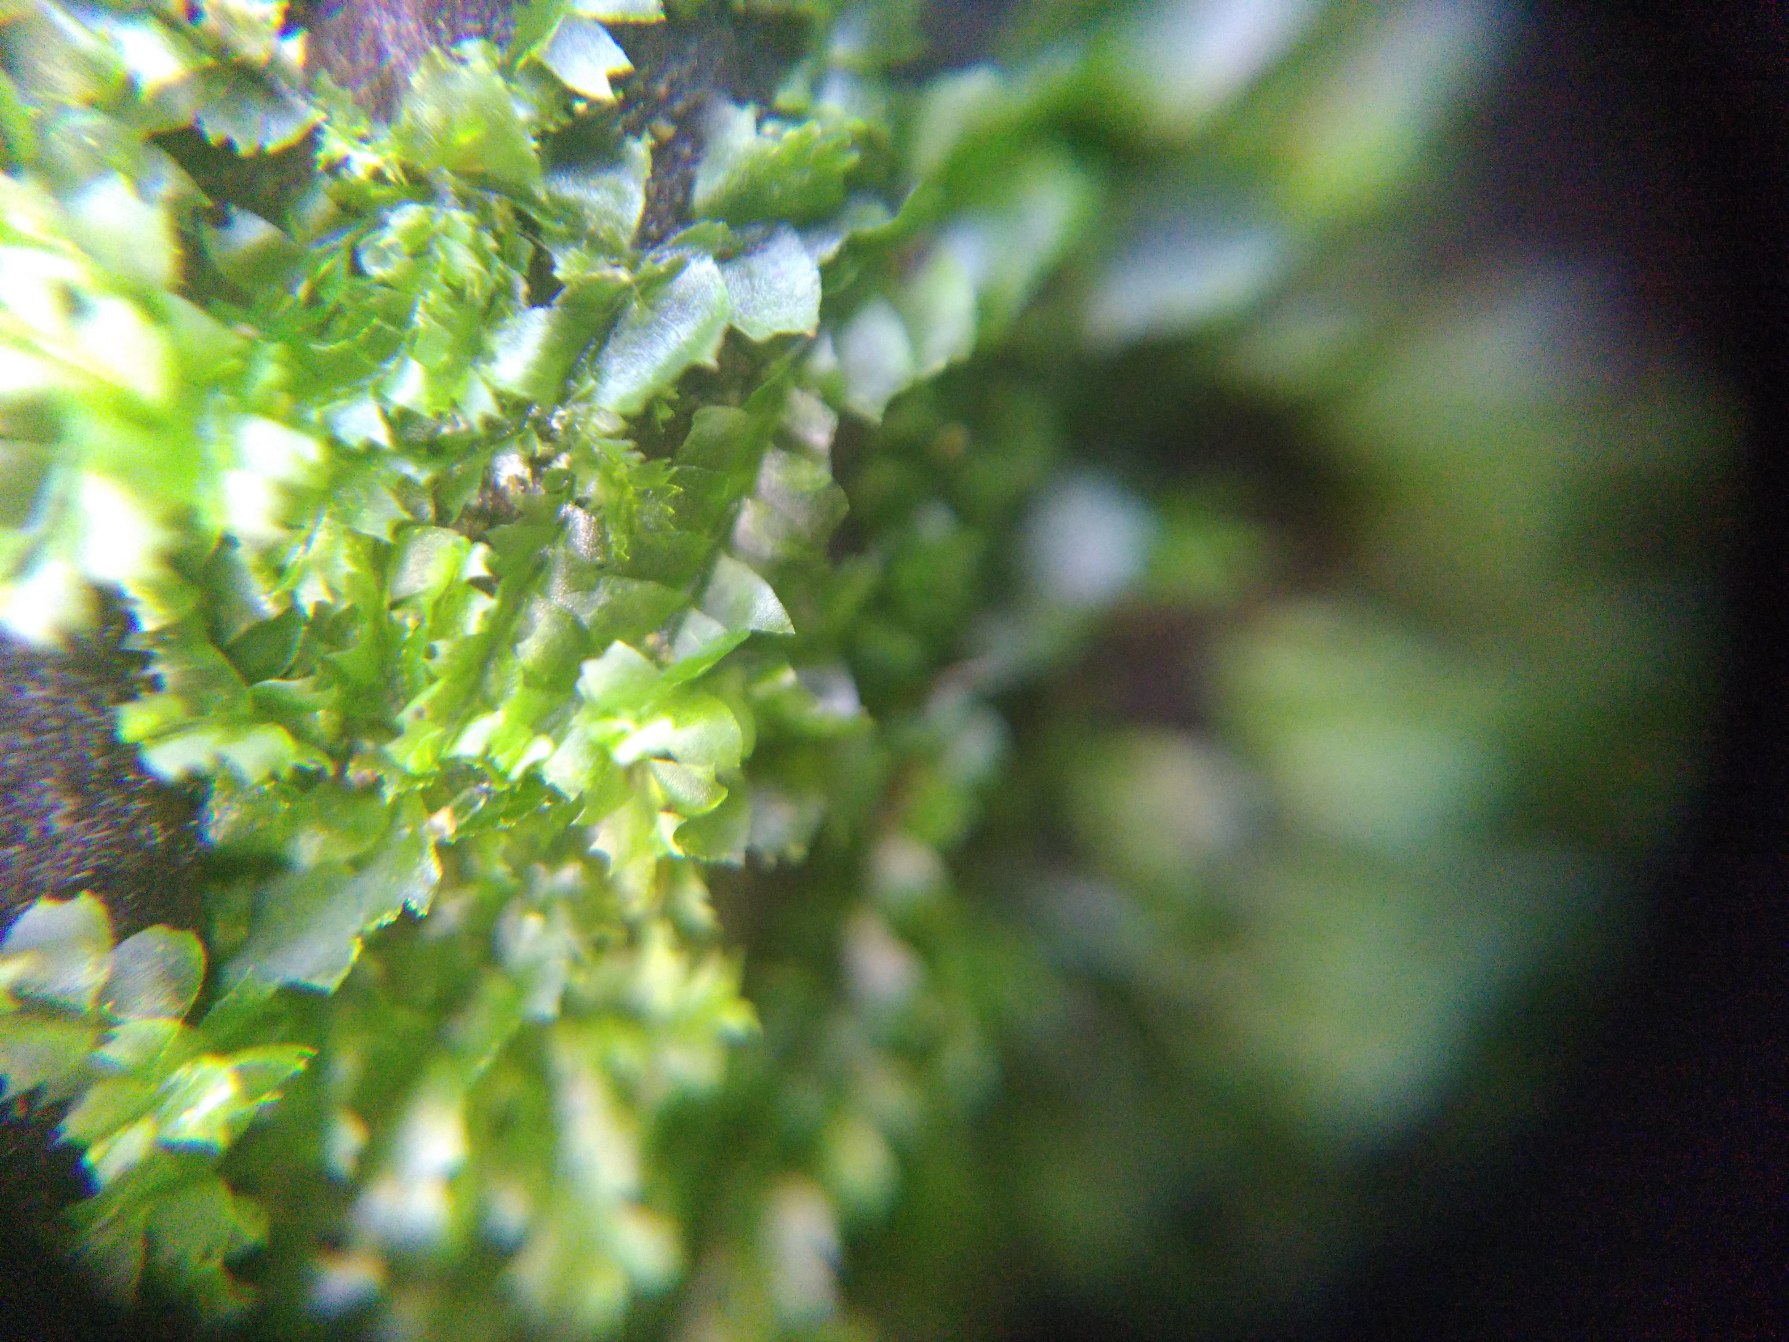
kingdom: Plantae
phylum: Marchantiophyta
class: Jungermanniopsida
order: Jungermanniales
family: Lophocoleaceae
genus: Lophocolea
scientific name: Lophocolea heterophylla
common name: Forskelligbladet kamsvøb
